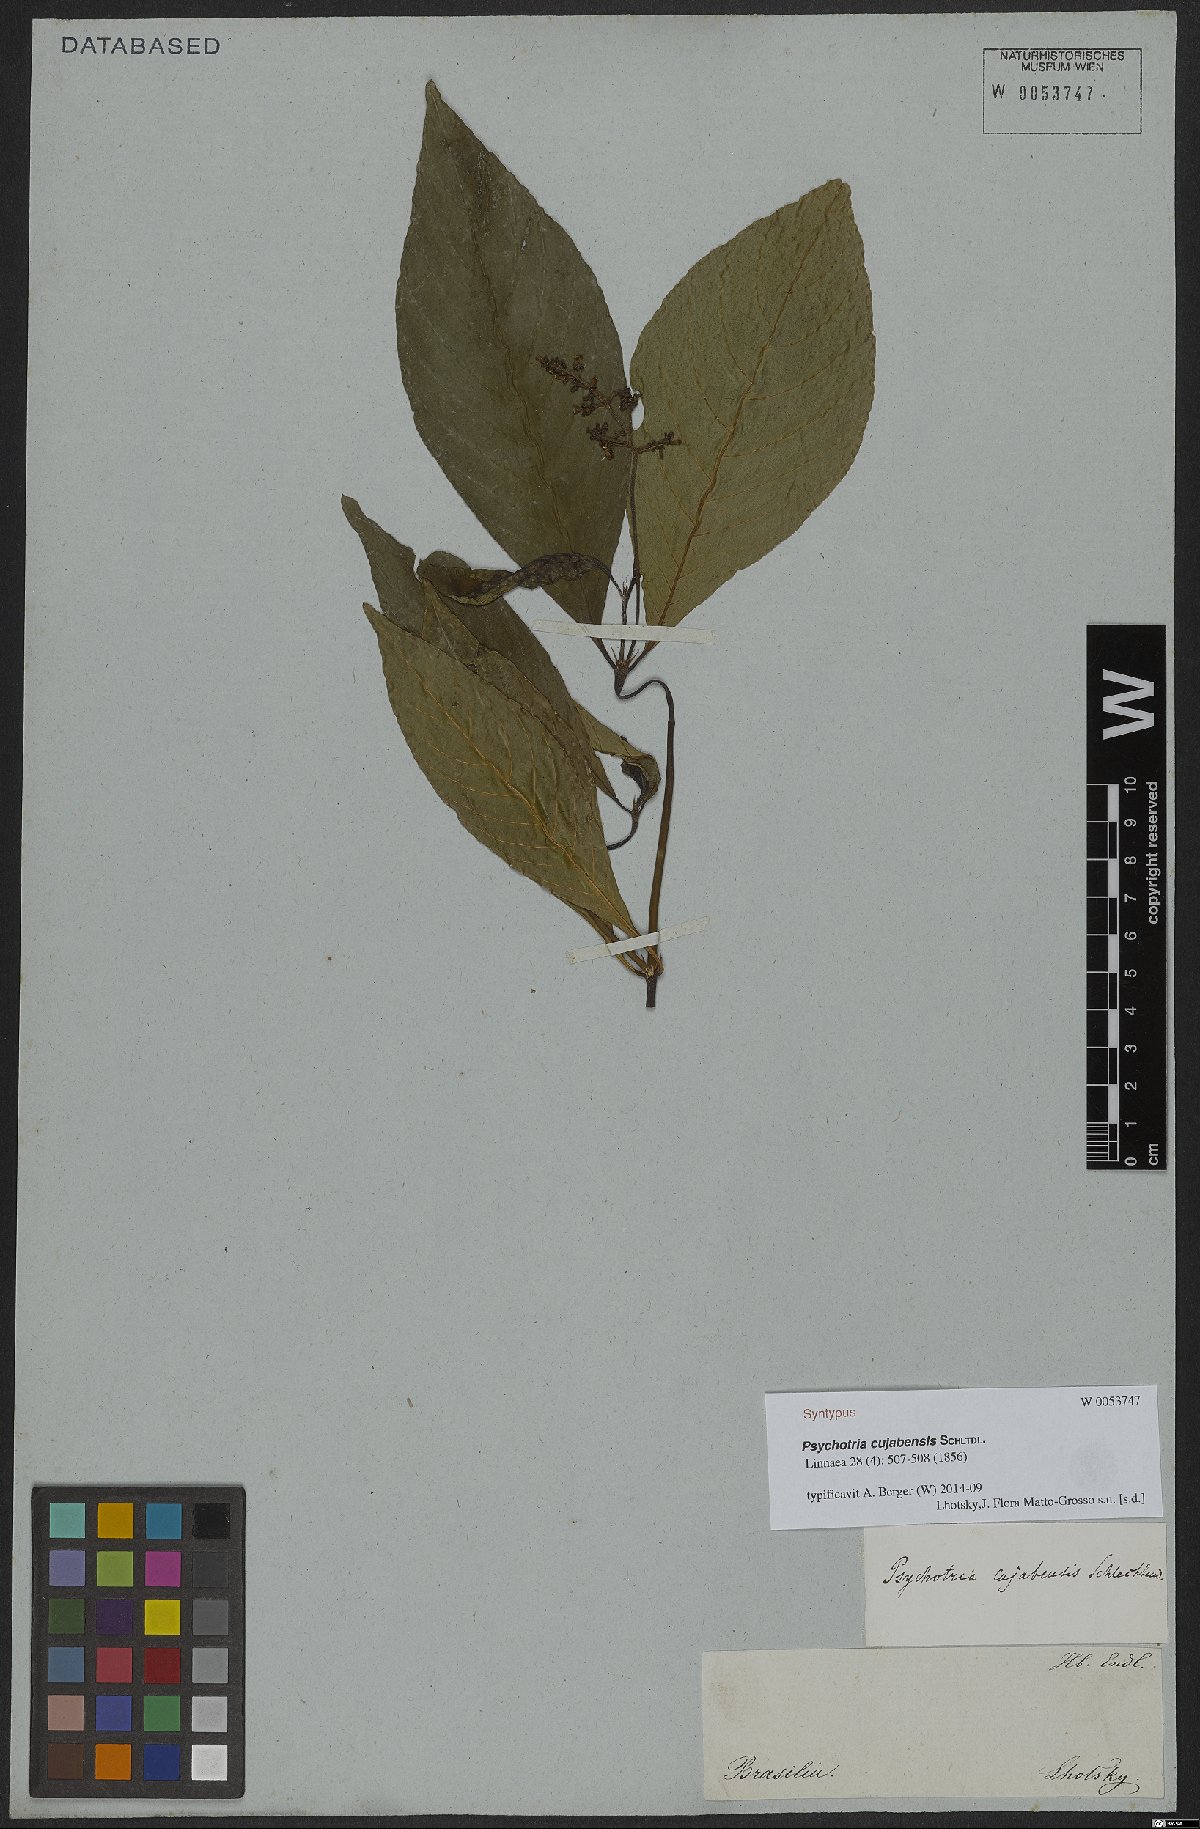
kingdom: Plantae
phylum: Tracheophyta
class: Magnoliopsida
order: Gentianales
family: Rubiaceae
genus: Palicourea
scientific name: Palicourea crocea
